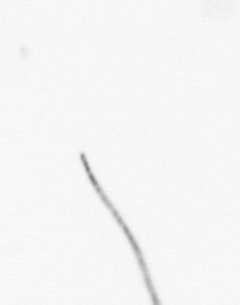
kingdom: Chromista
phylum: Ochrophyta
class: Bacillariophyceae
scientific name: Bacillariophyceae
